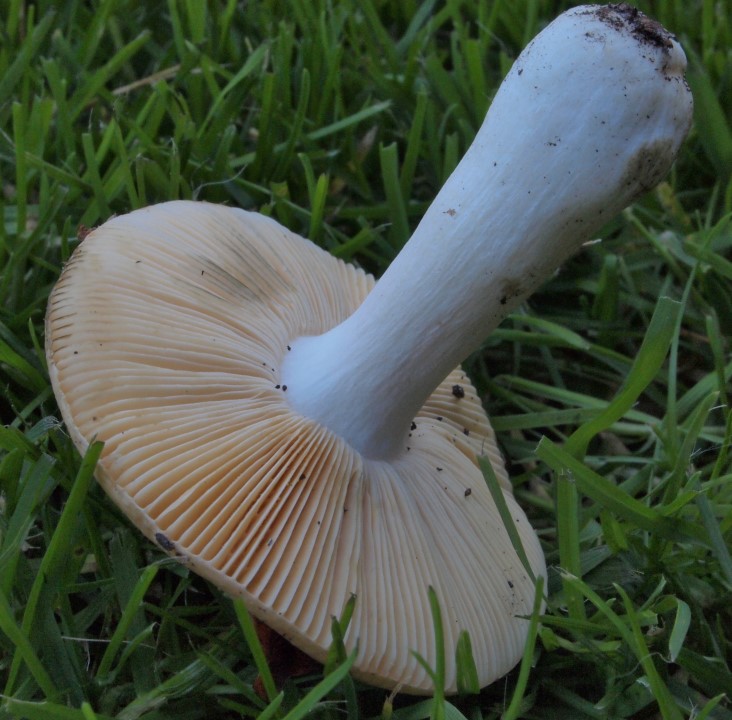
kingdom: Fungi
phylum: Basidiomycota
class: Agaricomycetes
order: Russulales
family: Russulaceae
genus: Russula
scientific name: Russula risigallina
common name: abrikos-skørhat
